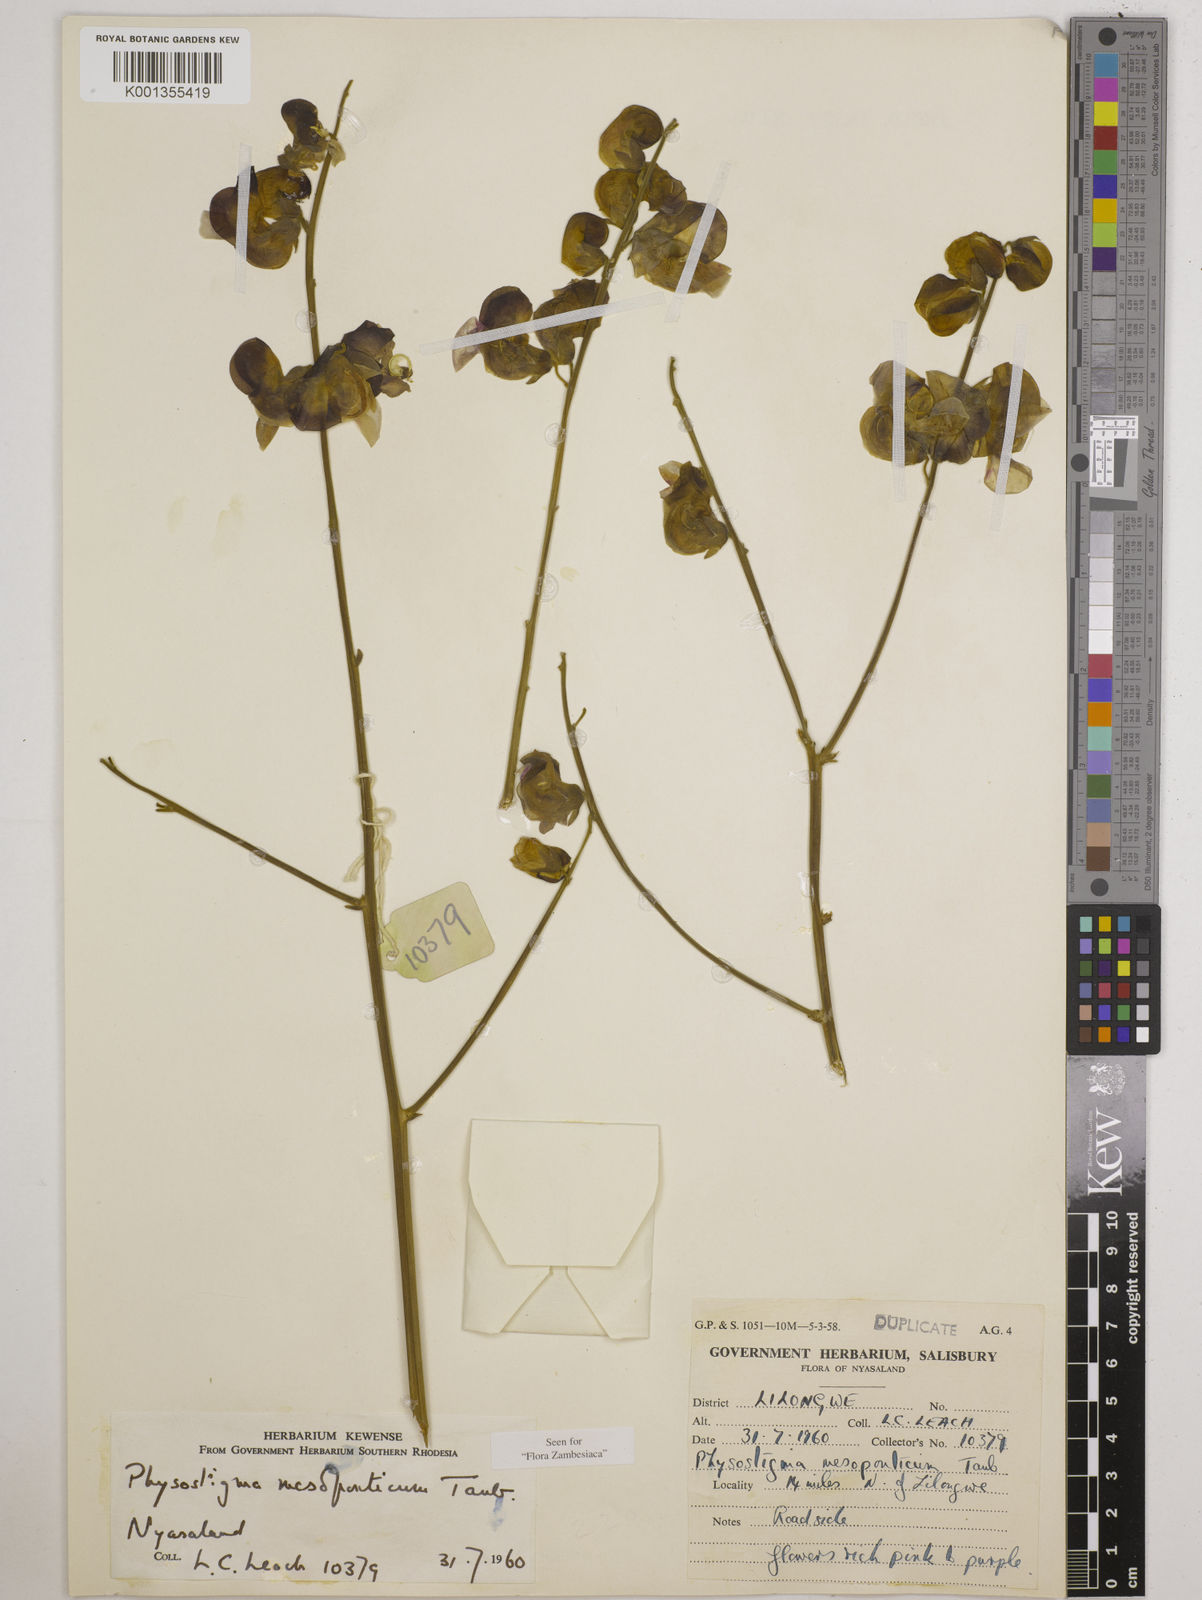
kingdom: Plantae
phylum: Tracheophyta
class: Magnoliopsida
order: Fabales
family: Fabaceae
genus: Physostigma
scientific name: Physostigma mesoponticum
